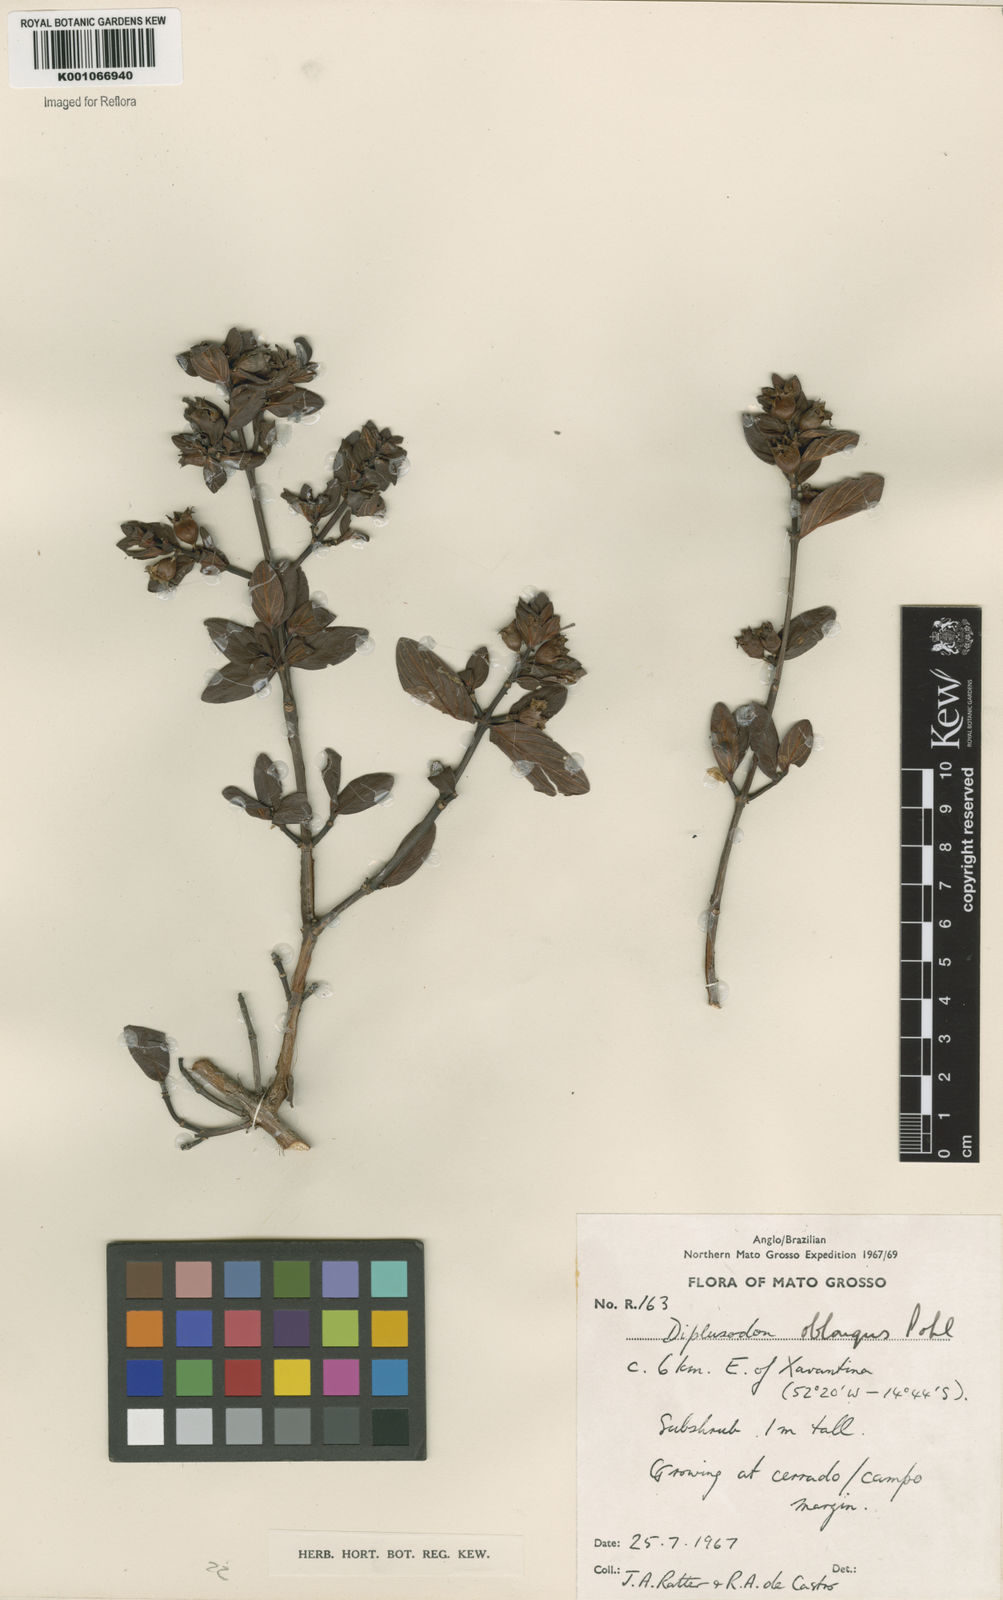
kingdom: Plantae
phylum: Tracheophyta
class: Magnoliopsida
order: Myrtales
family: Lythraceae
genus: Diplusodon
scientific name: Diplusodon oblongus
